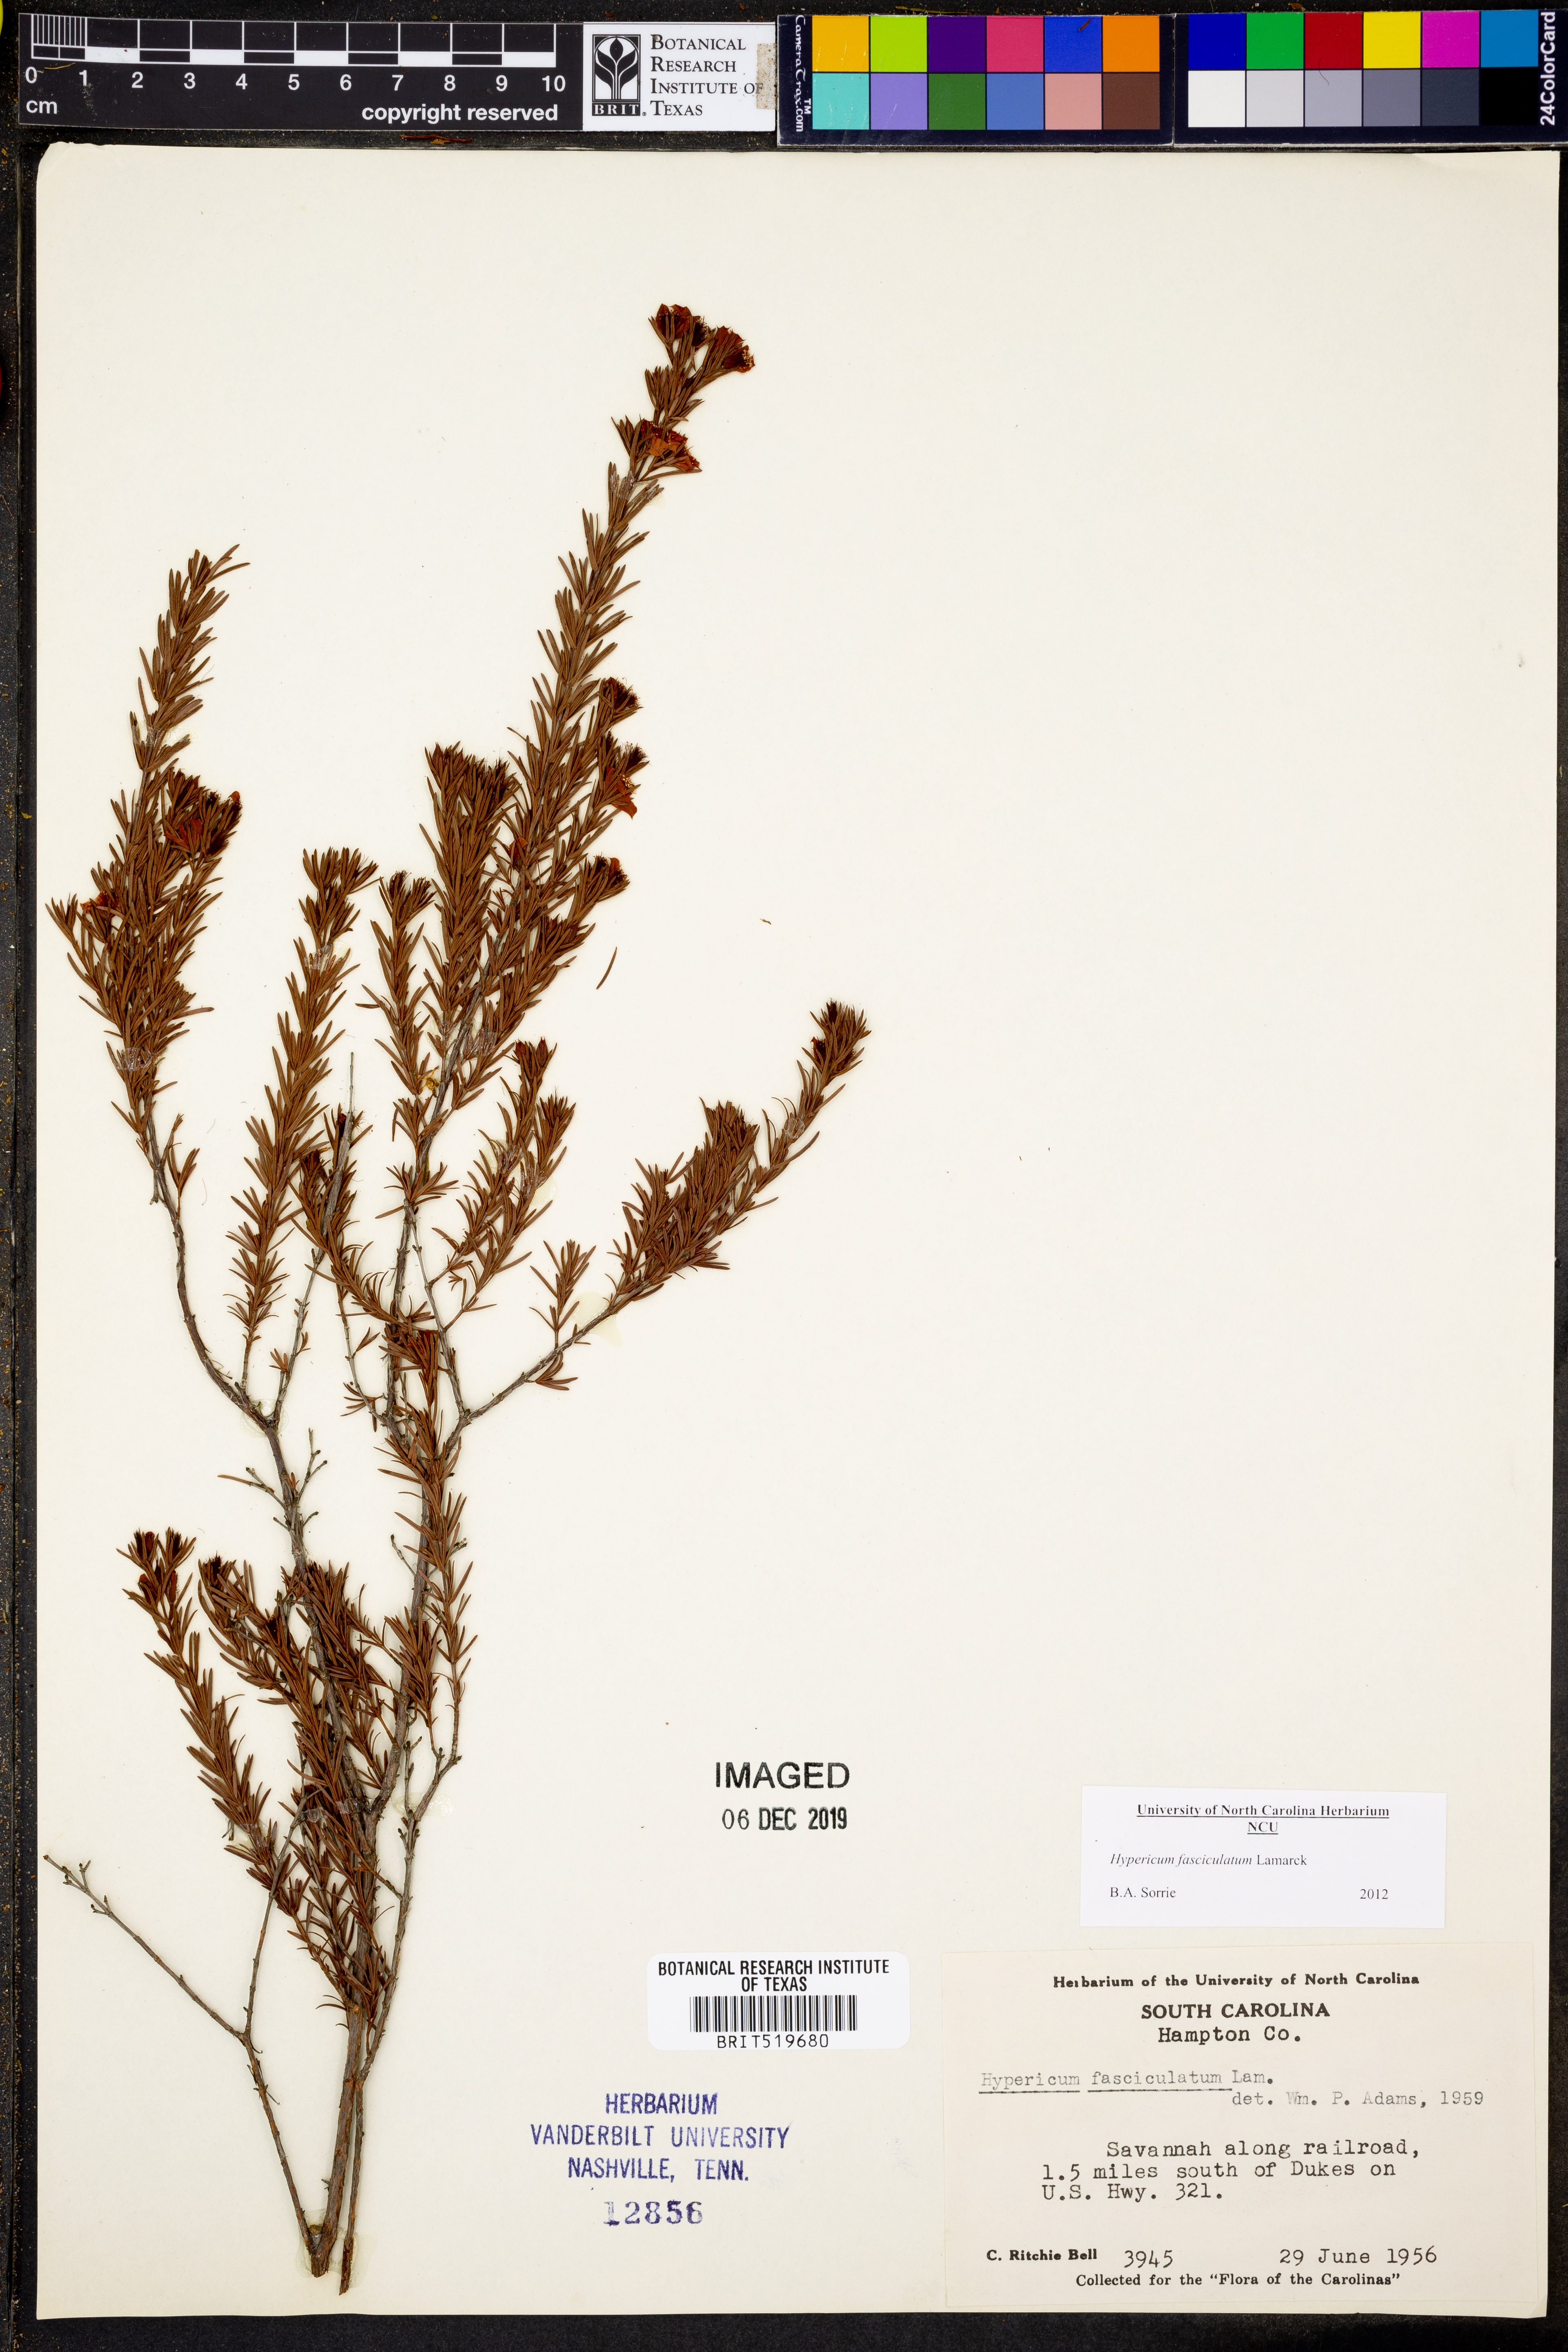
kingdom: Plantae
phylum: Tracheophyta
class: Magnoliopsida
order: Malpighiales
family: Hypericaceae
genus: Hypericum
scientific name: Hypericum fasciculatum
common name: Peelbark st. john's wort
